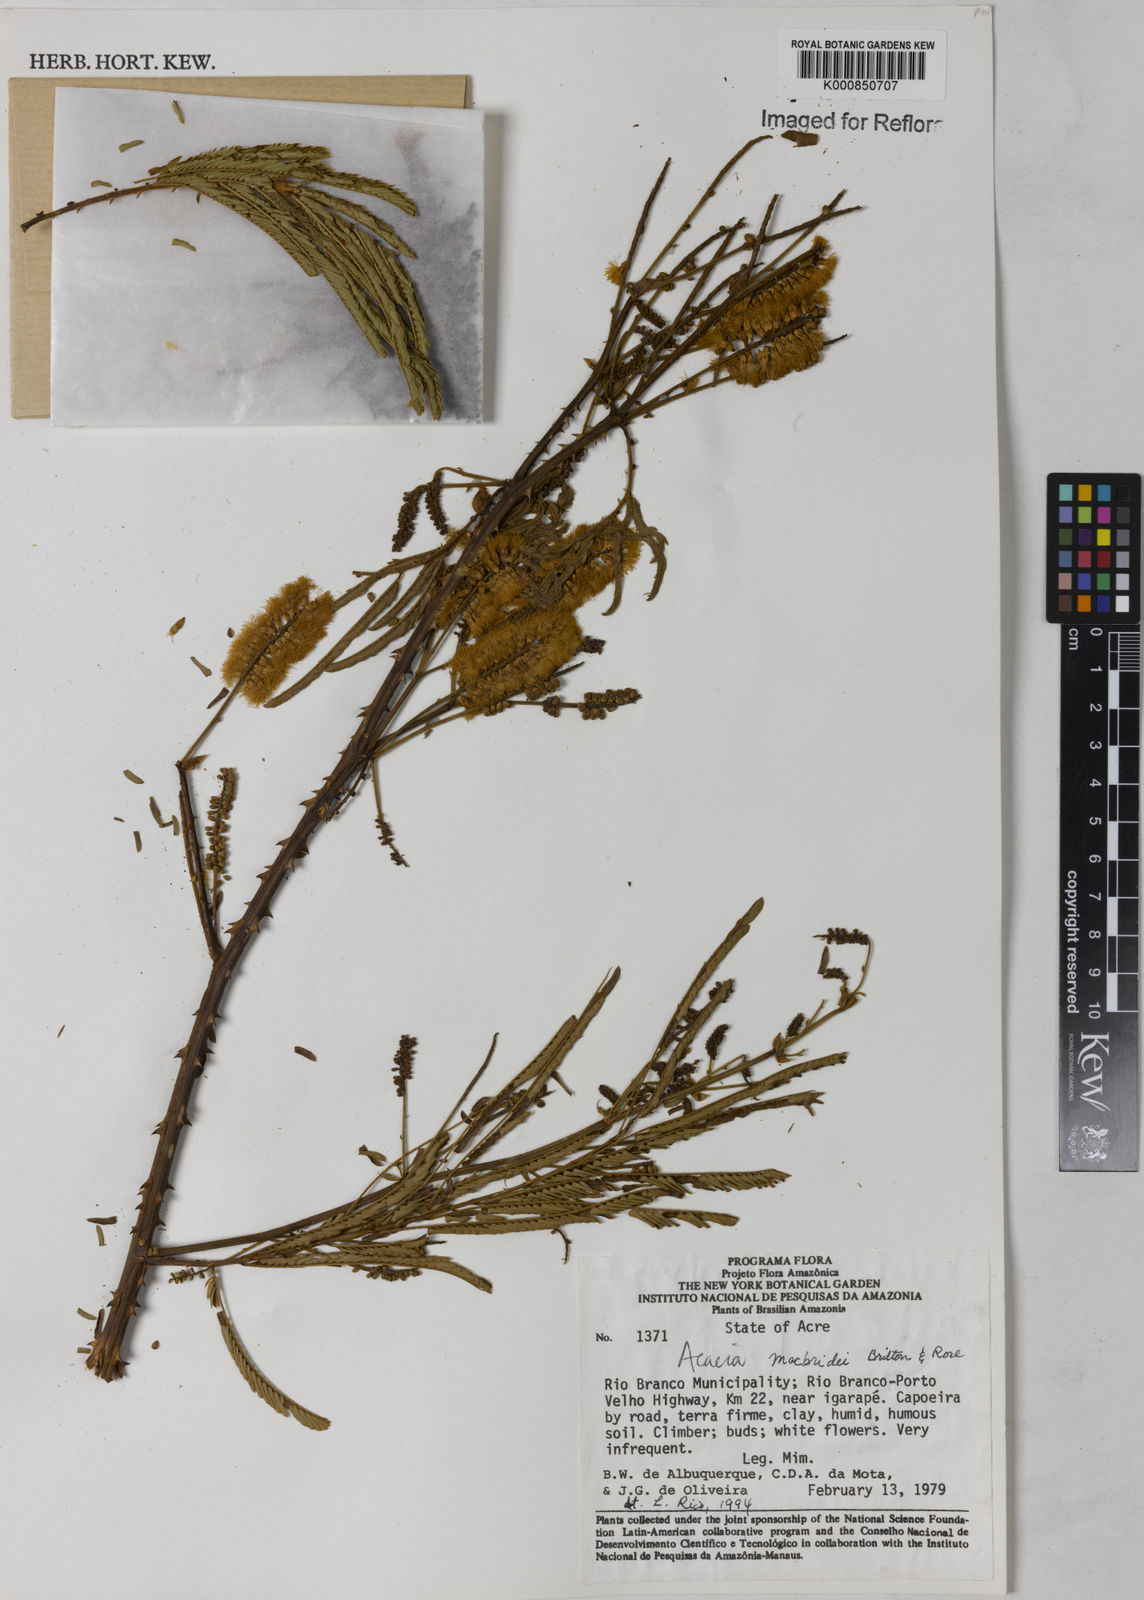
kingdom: Plantae
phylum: Tracheophyta
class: Magnoliopsida
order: Fabales
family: Fabaceae
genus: Senegalia
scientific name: Senegalia macbridei
